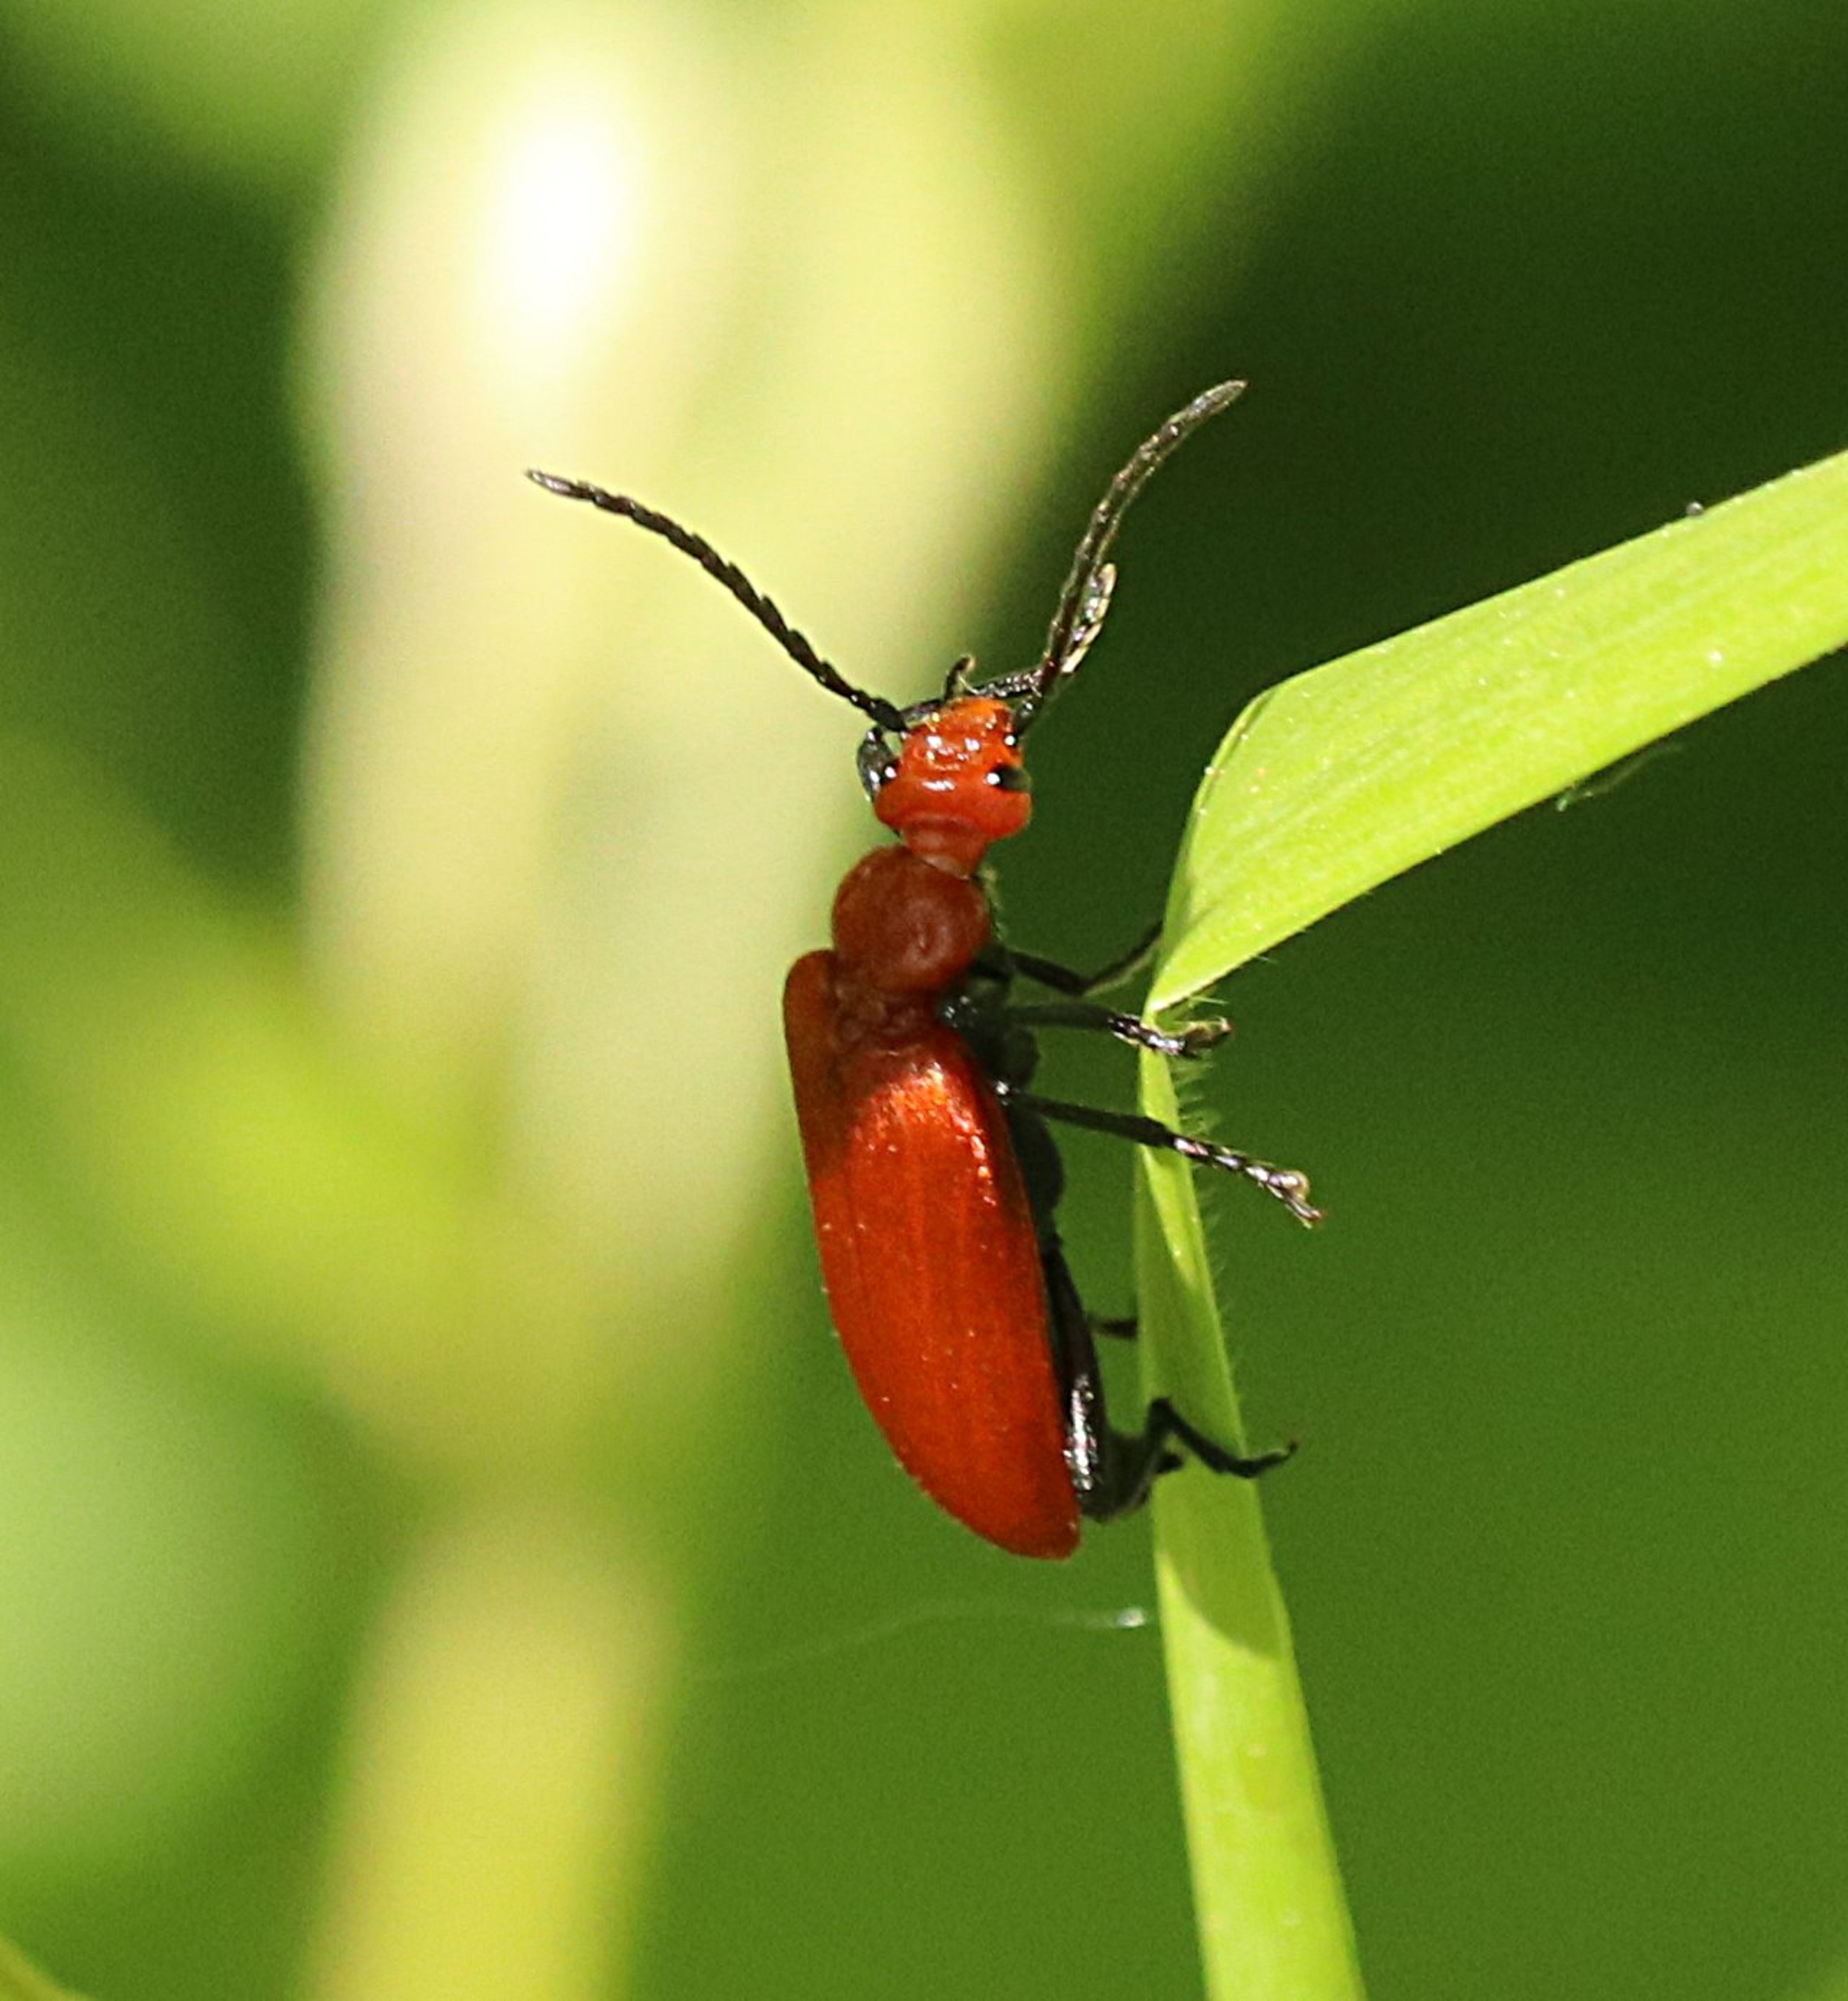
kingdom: Animalia
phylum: Arthropoda
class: Insecta
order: Coleoptera
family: Pyrochroidae
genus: Pyrochroa
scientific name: Pyrochroa serraticornis
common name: Rødhovedet kardinalbille
